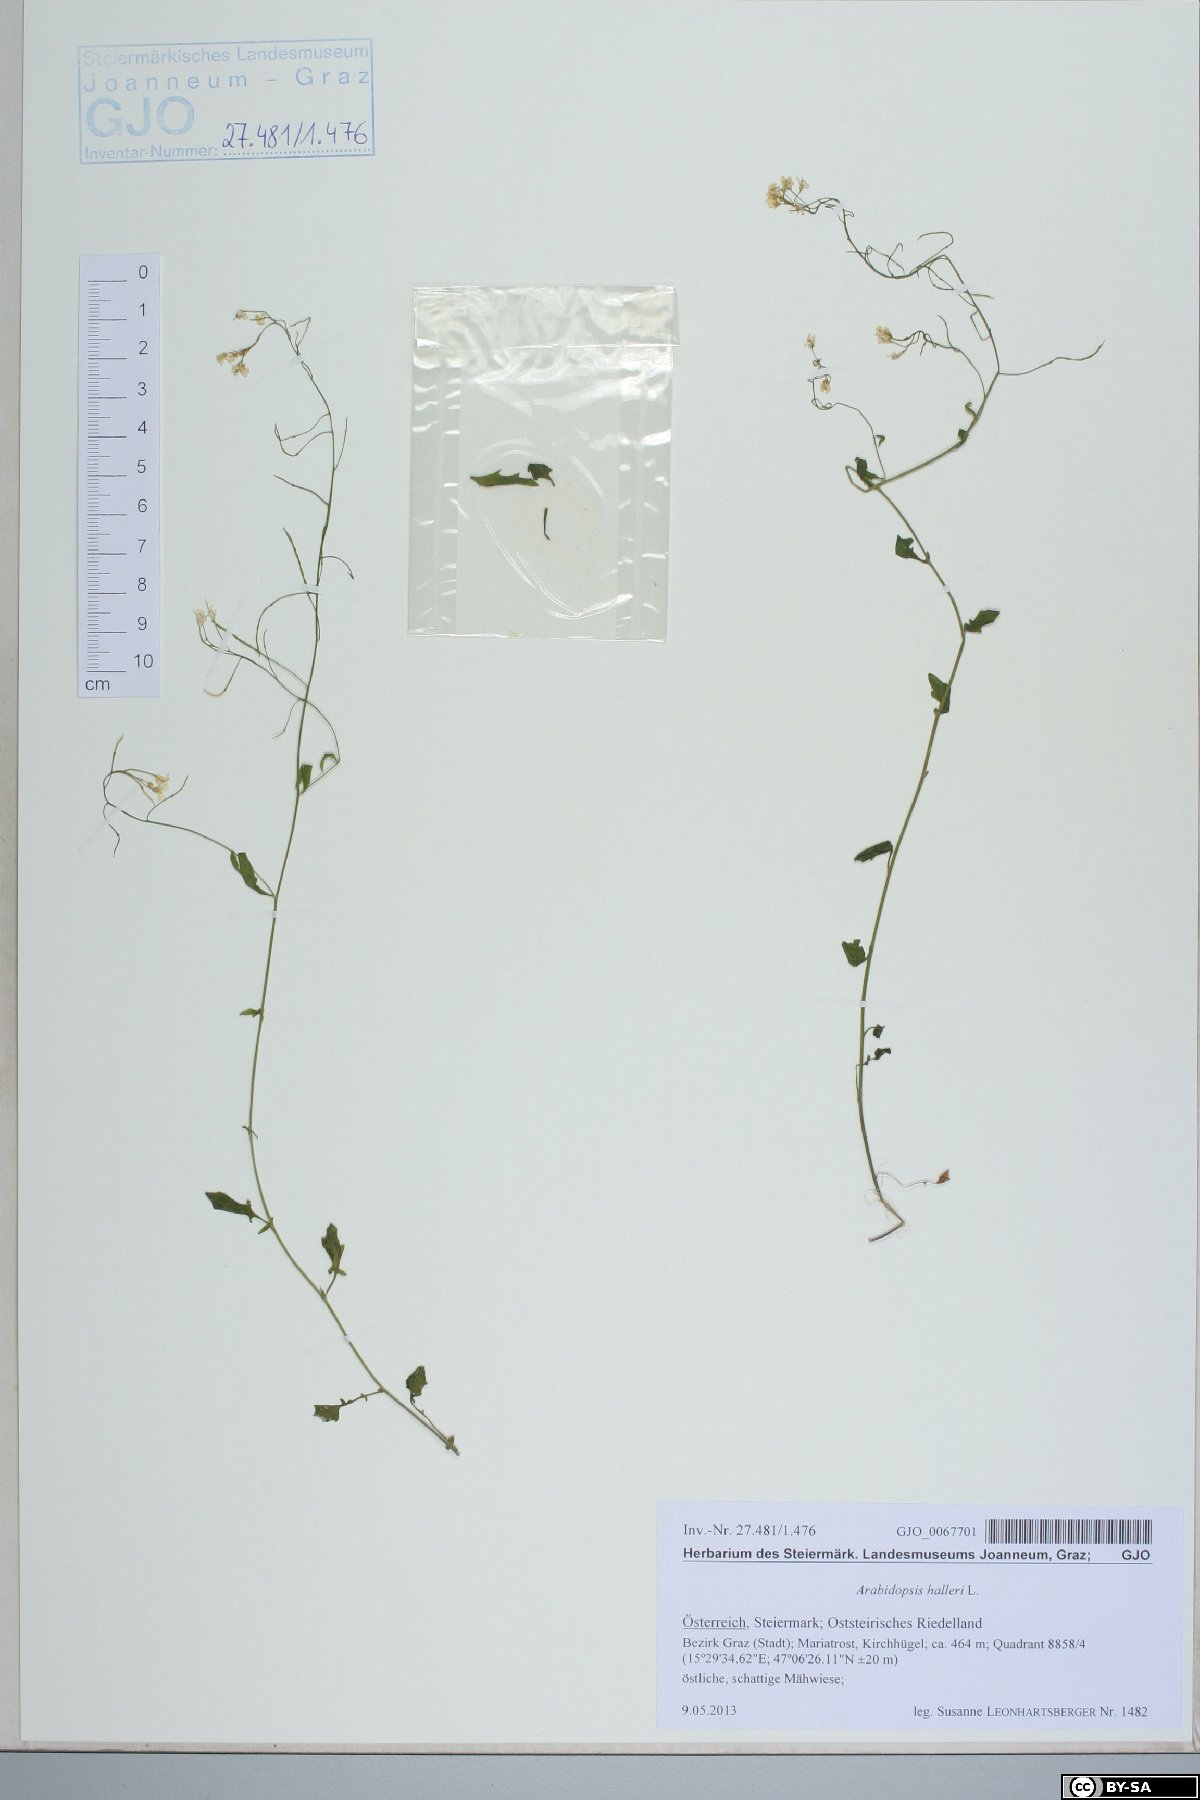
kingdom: Plantae
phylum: Tracheophyta
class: Magnoliopsida
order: Brassicales
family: Brassicaceae
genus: Arabidopsis
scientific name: Arabidopsis halleri
